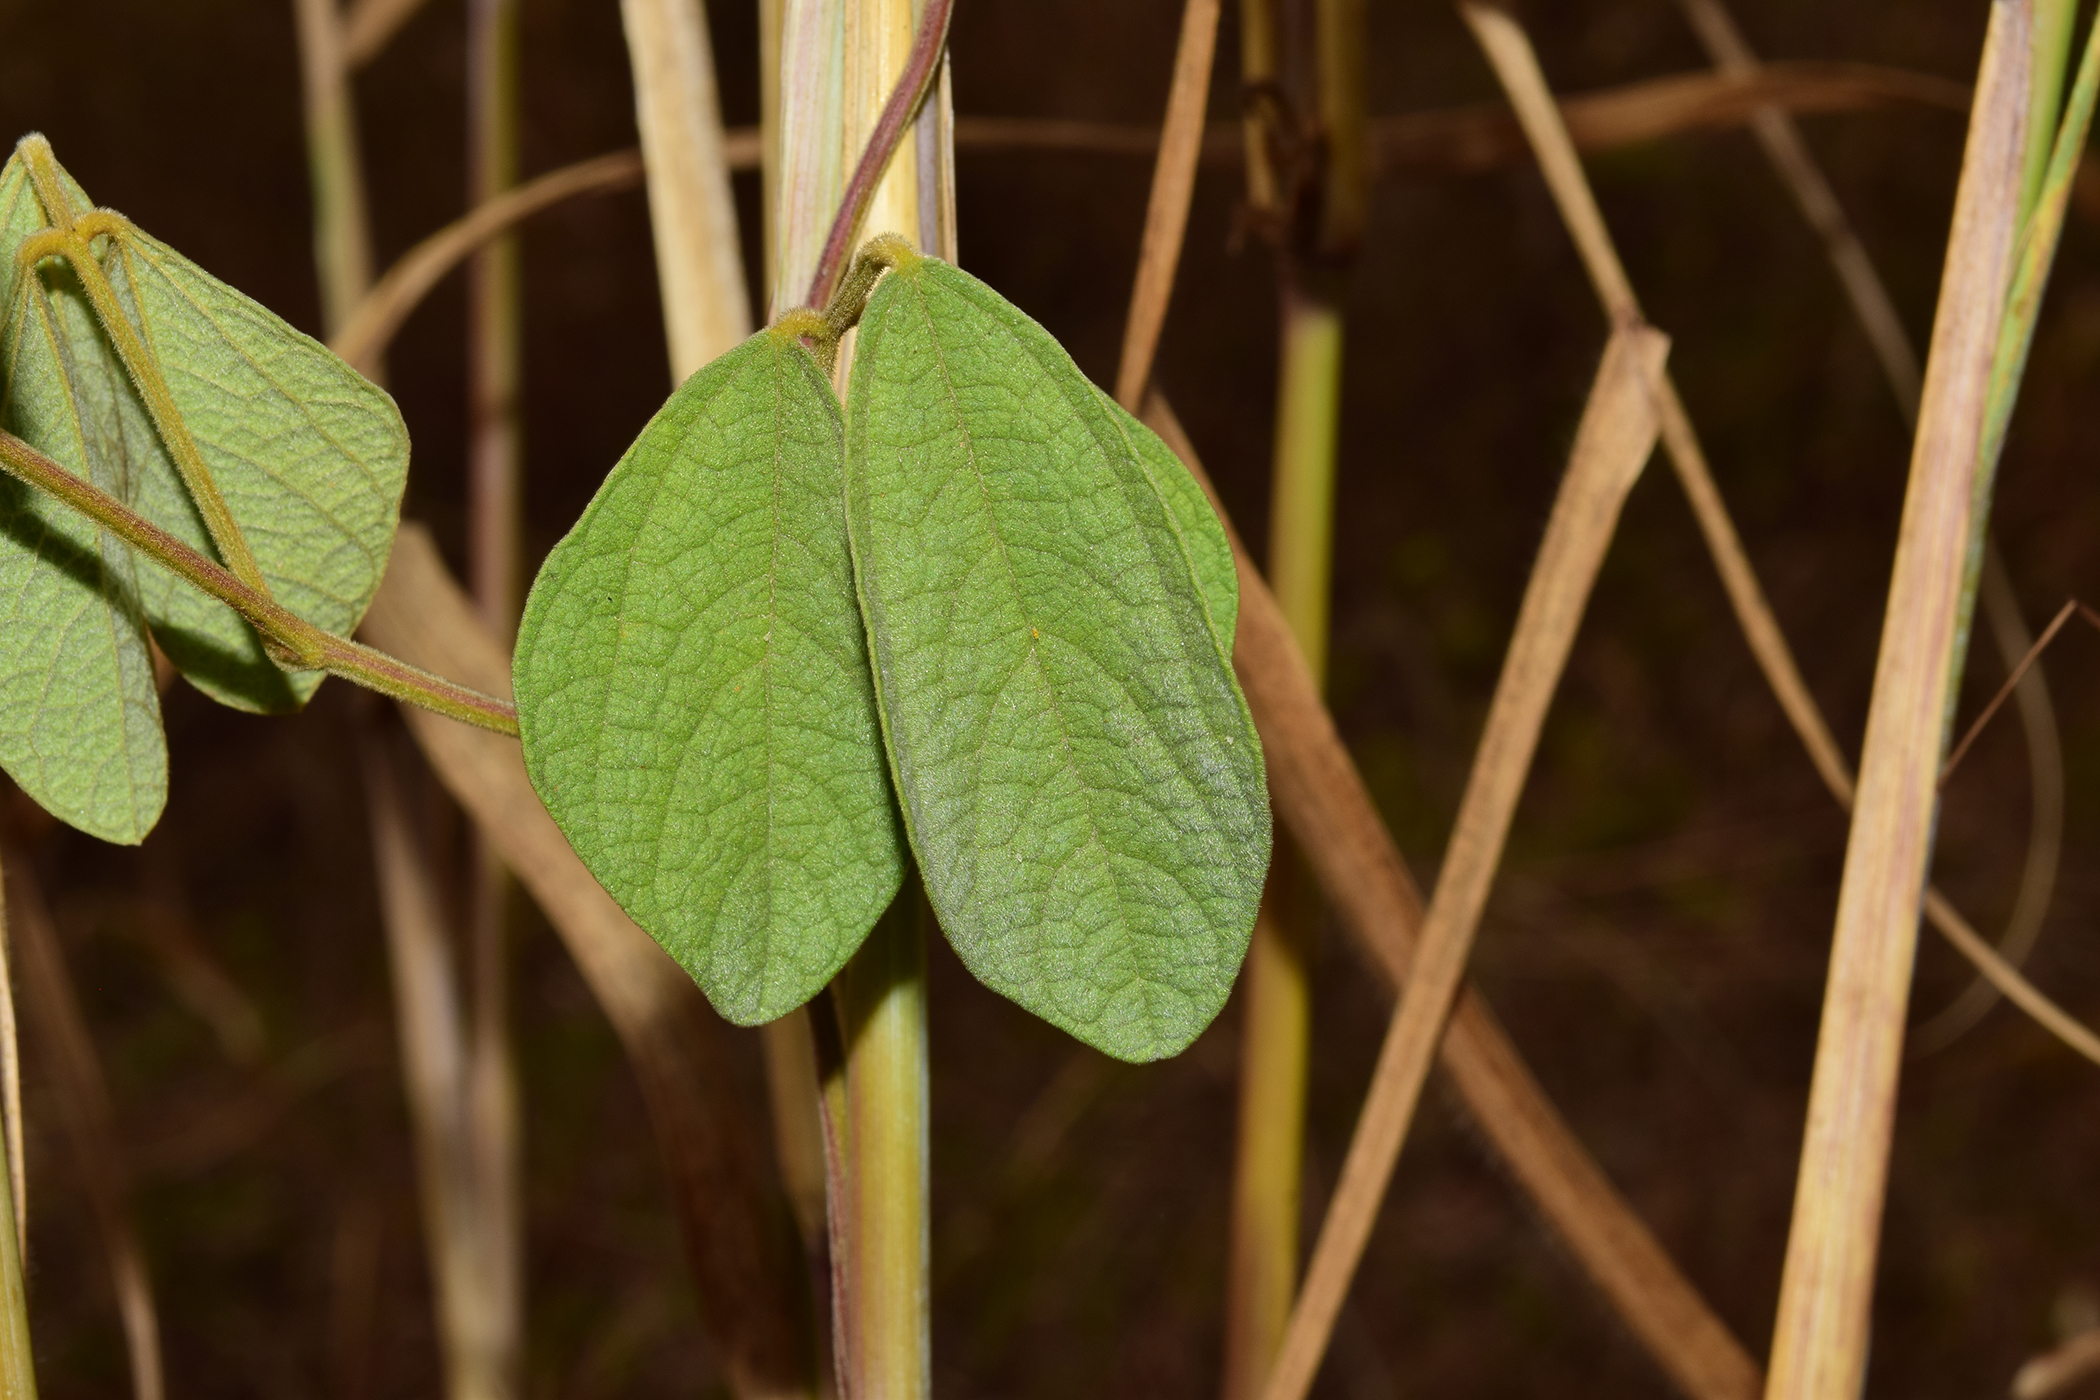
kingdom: Plantae
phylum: Tracheophyta
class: Magnoliopsida
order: Fabales
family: Fabaceae
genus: Cajanus
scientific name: Cajanus scarabaeoides
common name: Showy pigeonpea
